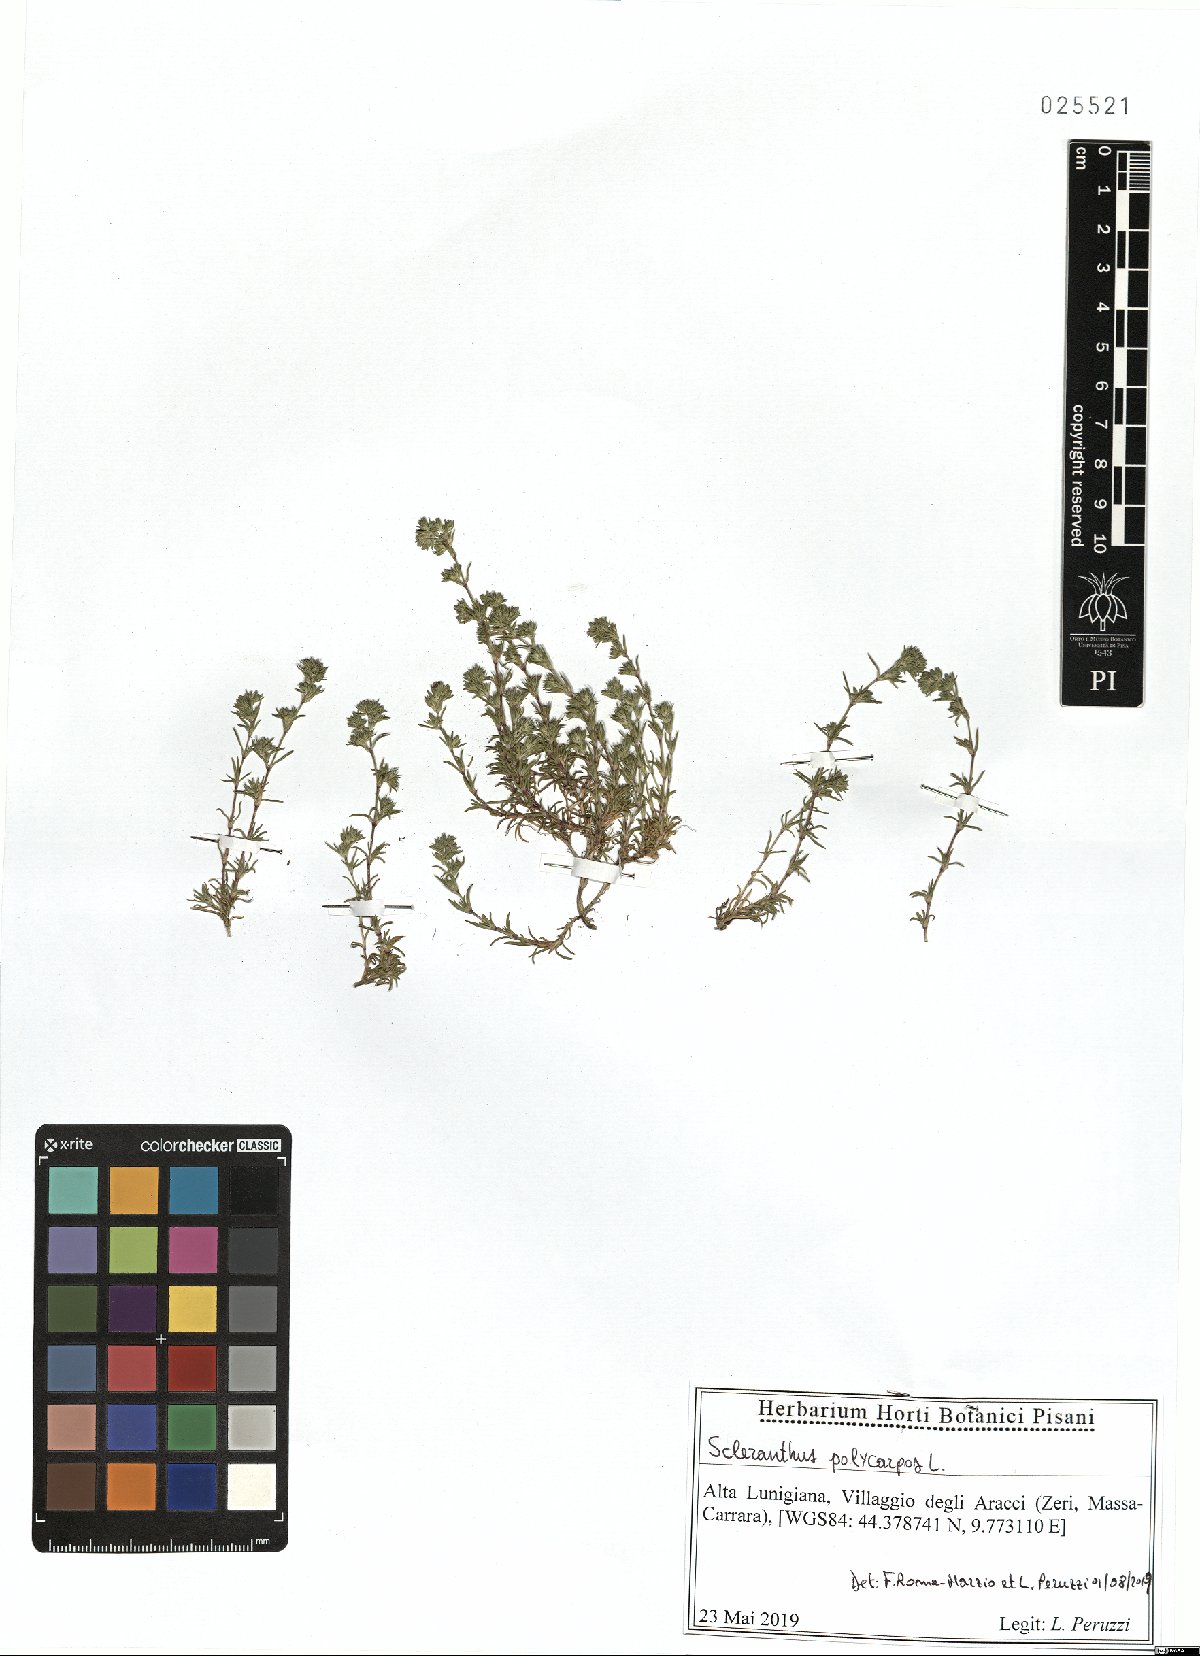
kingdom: Plantae
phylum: Tracheophyta
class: Magnoliopsida
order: Caryophyllales
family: Caryophyllaceae
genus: Scleranthus
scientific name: Scleranthus annuus
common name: Annual knawel
